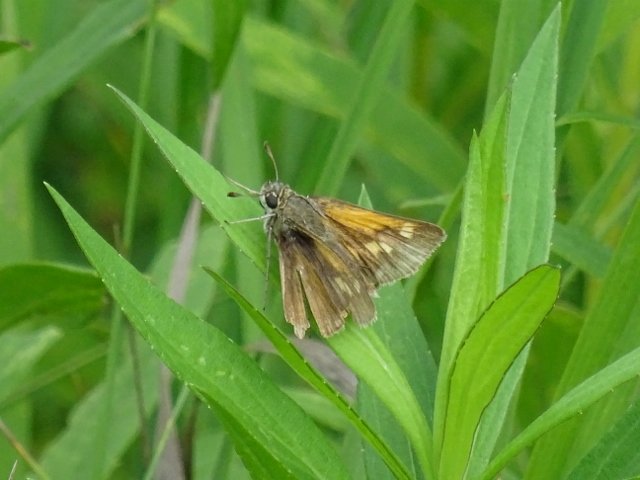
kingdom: Animalia
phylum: Arthropoda
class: Insecta
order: Lepidoptera
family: Hesperiidae
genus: Polites
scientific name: Polites themistocles
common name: Tawny-edged Skipper
